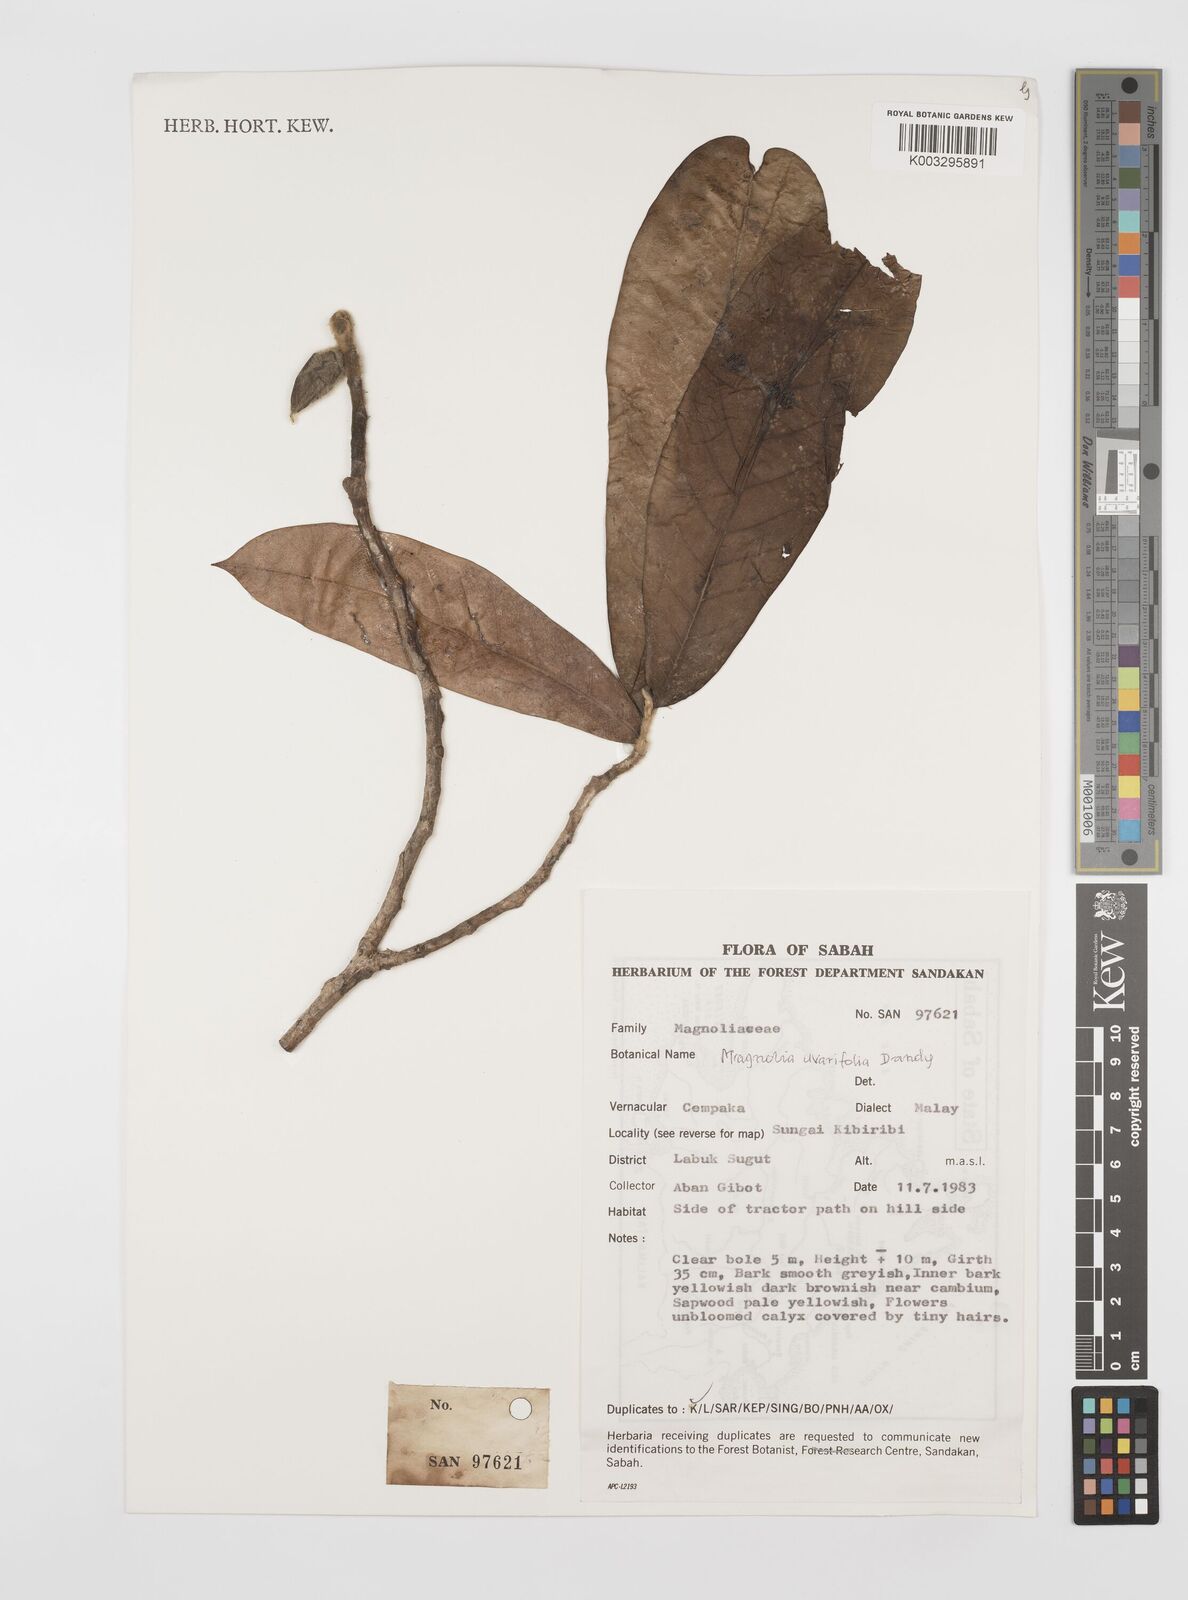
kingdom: Plantae
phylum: Tracheophyta
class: Magnoliopsida
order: Magnoliales
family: Magnoliaceae
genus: Magnolia
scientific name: Magnolia macklottii
